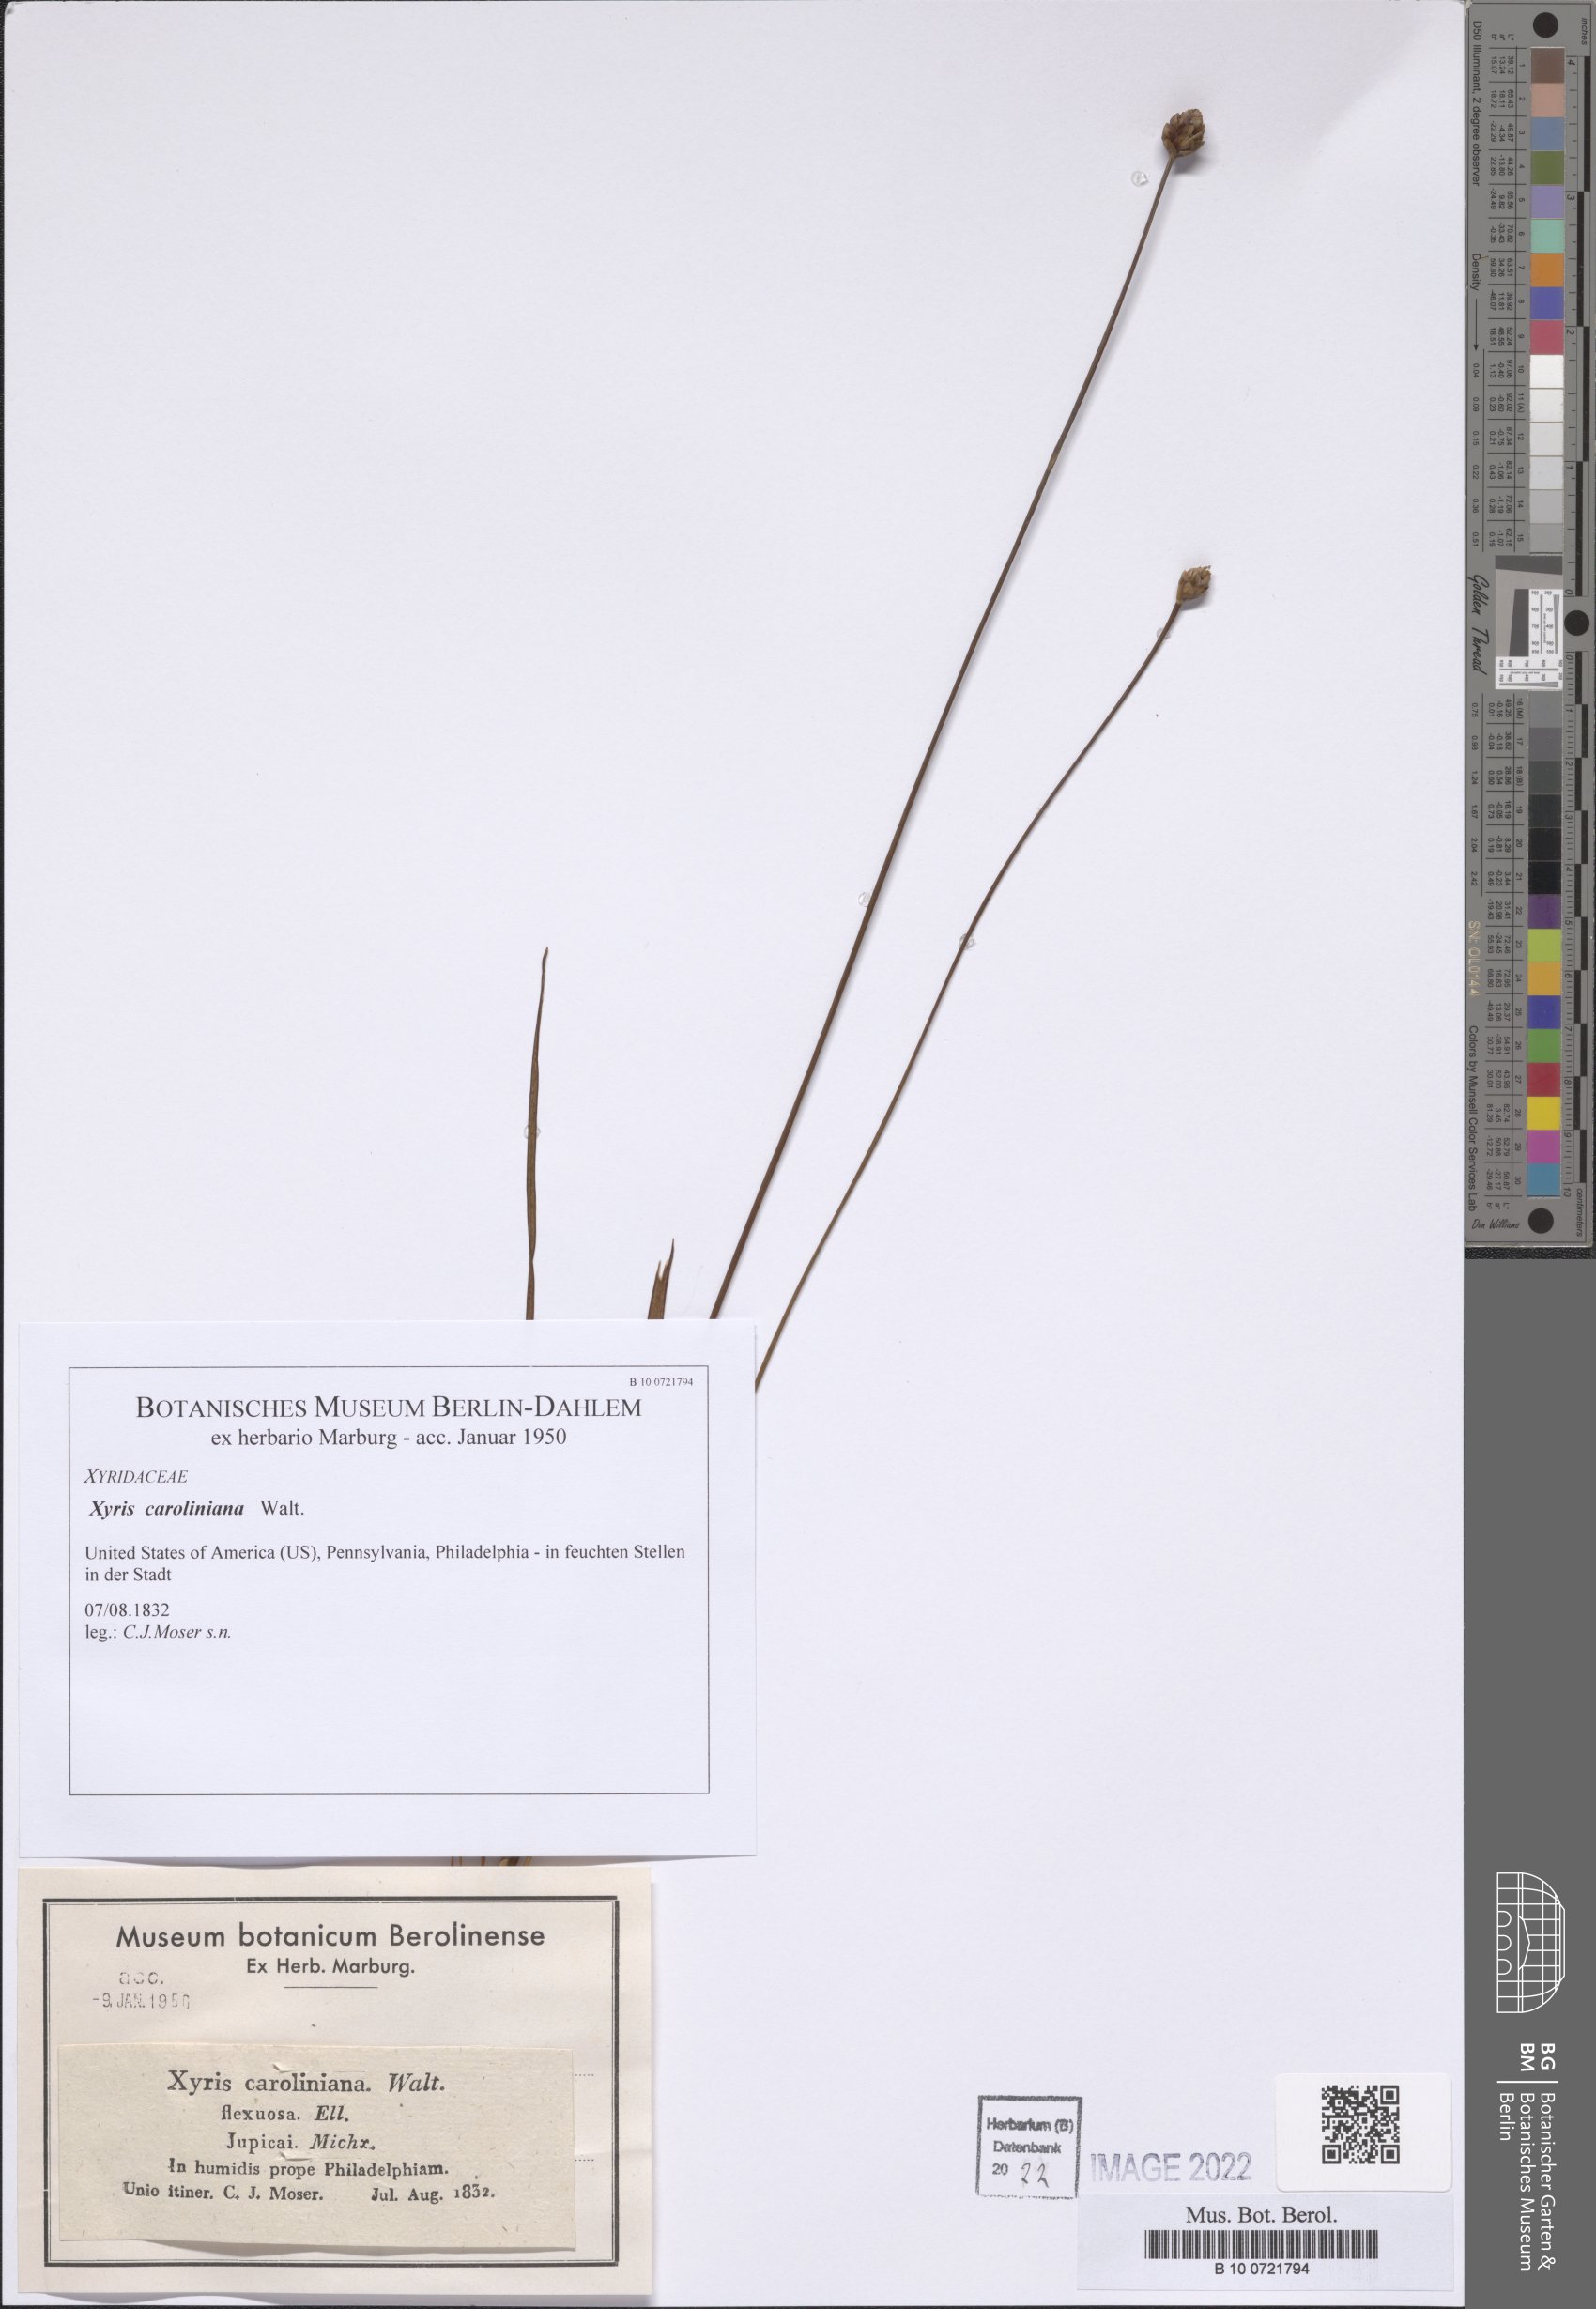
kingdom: Plantae
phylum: Tracheophyta
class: Liliopsida
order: Poales
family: Xyridaceae
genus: Xyris
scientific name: Xyris caroliniana
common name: Carolina yellow-eyed-grass
